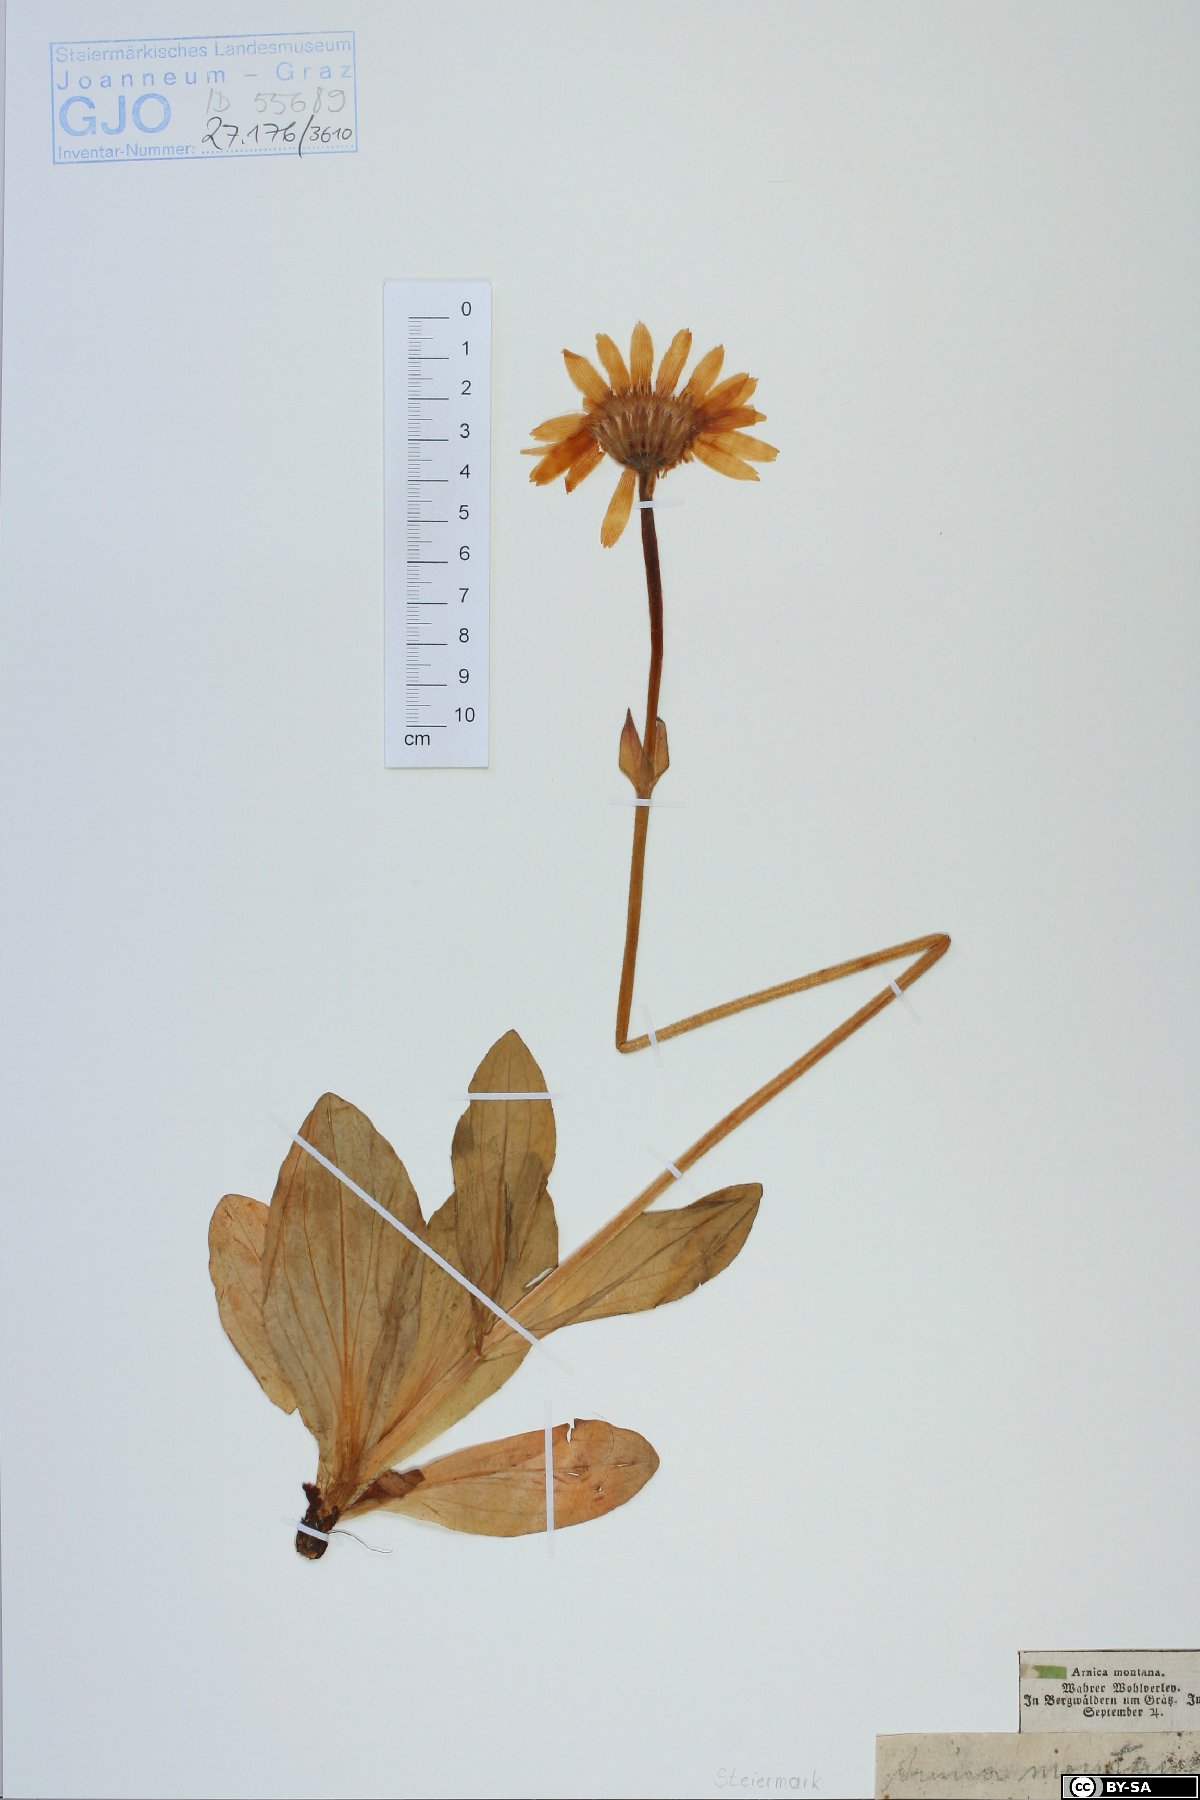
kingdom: Plantae
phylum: Tracheophyta
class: Magnoliopsida
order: Asterales
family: Asteraceae
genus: Arnica
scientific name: Arnica montana
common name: Leopard's bane
